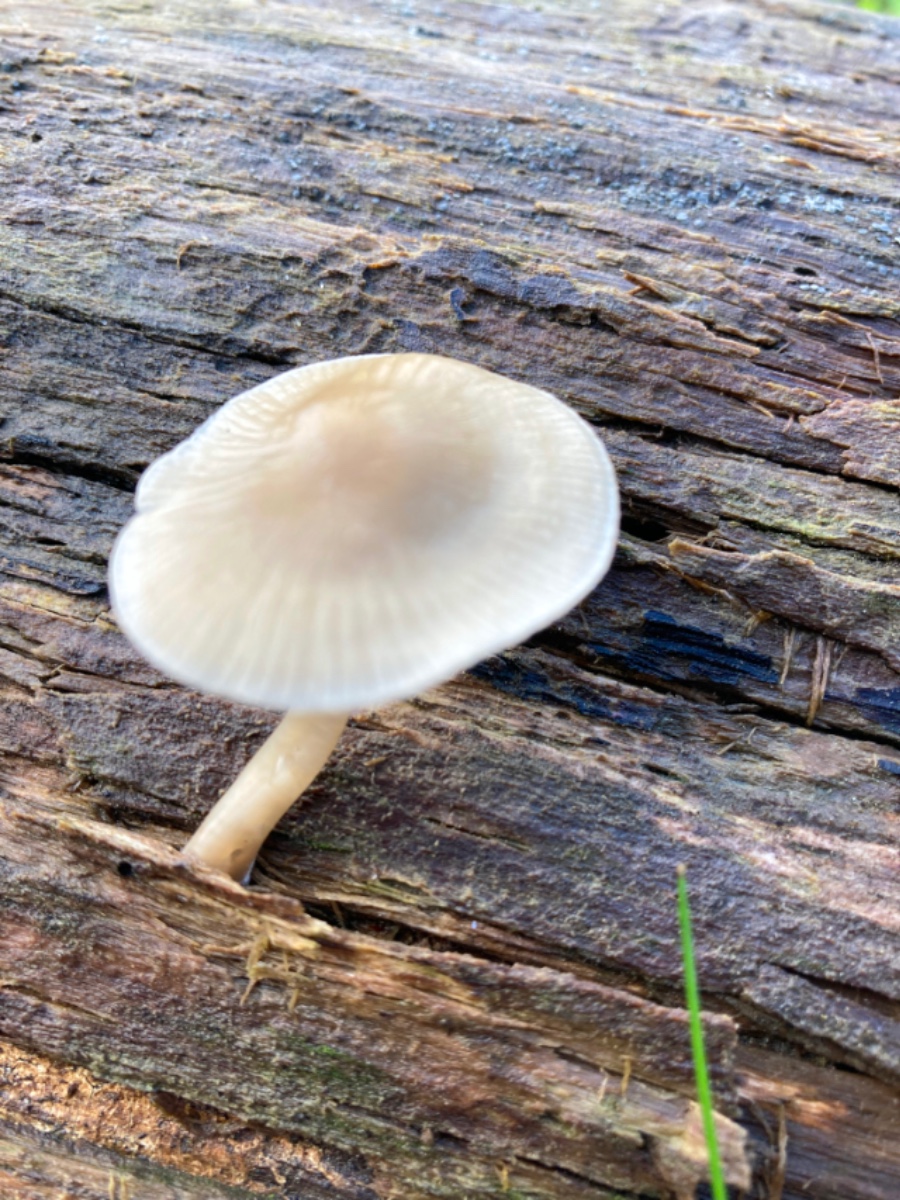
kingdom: Fungi
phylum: Basidiomycota
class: Agaricomycetes
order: Agaricales
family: Mycenaceae
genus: Mycena
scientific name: Mycena galericulata
